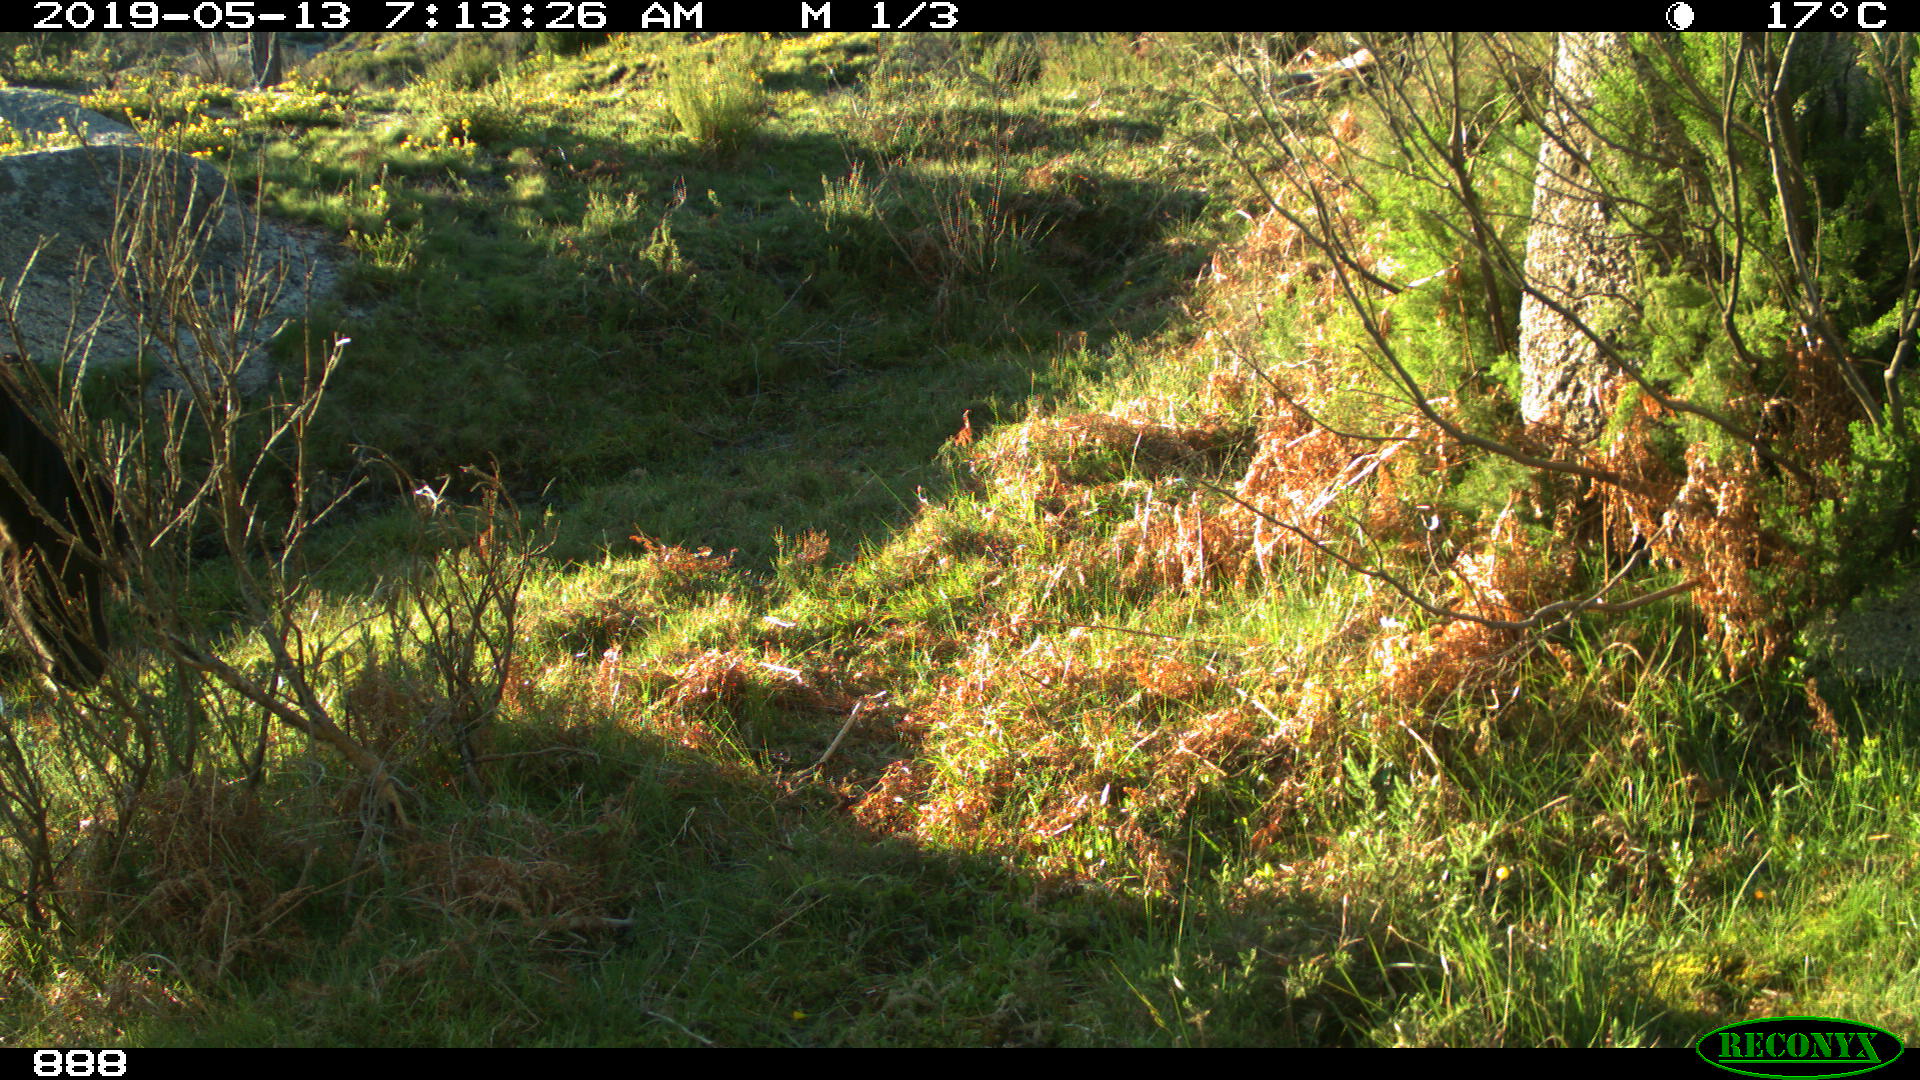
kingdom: Animalia
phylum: Chordata
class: Mammalia
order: Perissodactyla
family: Equidae
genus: Equus
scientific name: Equus caballus
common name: Horse
